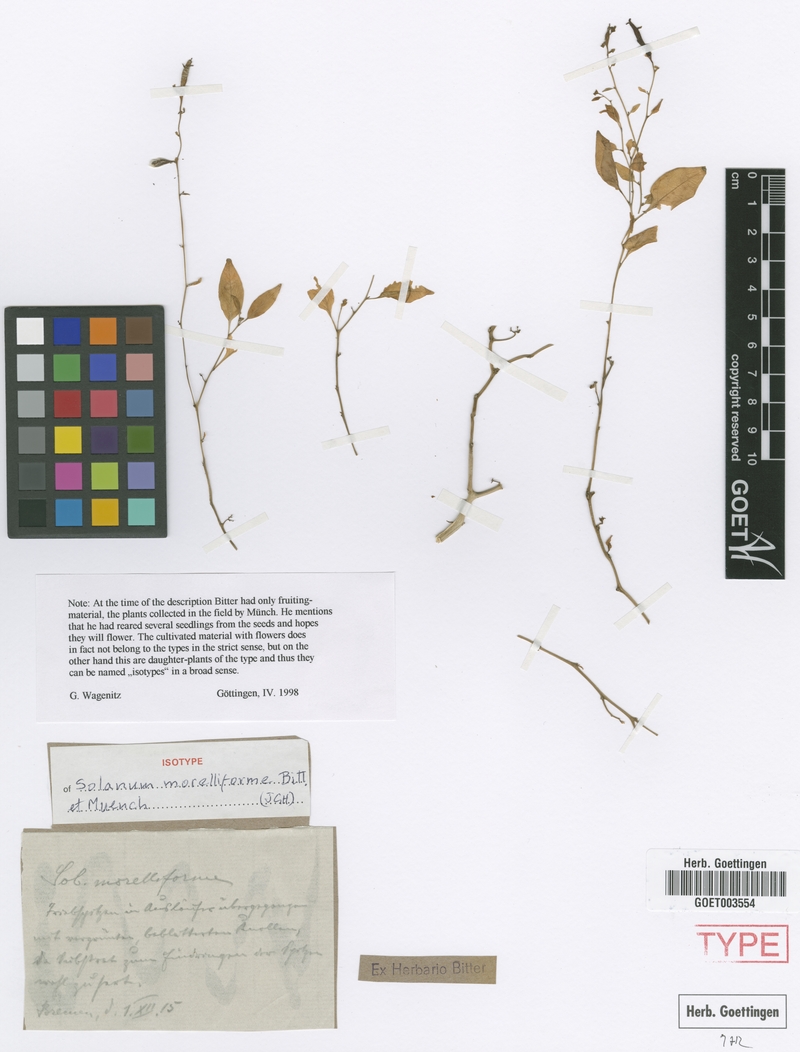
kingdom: Plantae
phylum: Tracheophyta
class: Magnoliopsida
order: Solanales
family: Solanaceae
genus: Solanum
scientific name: Solanum morelliforme
